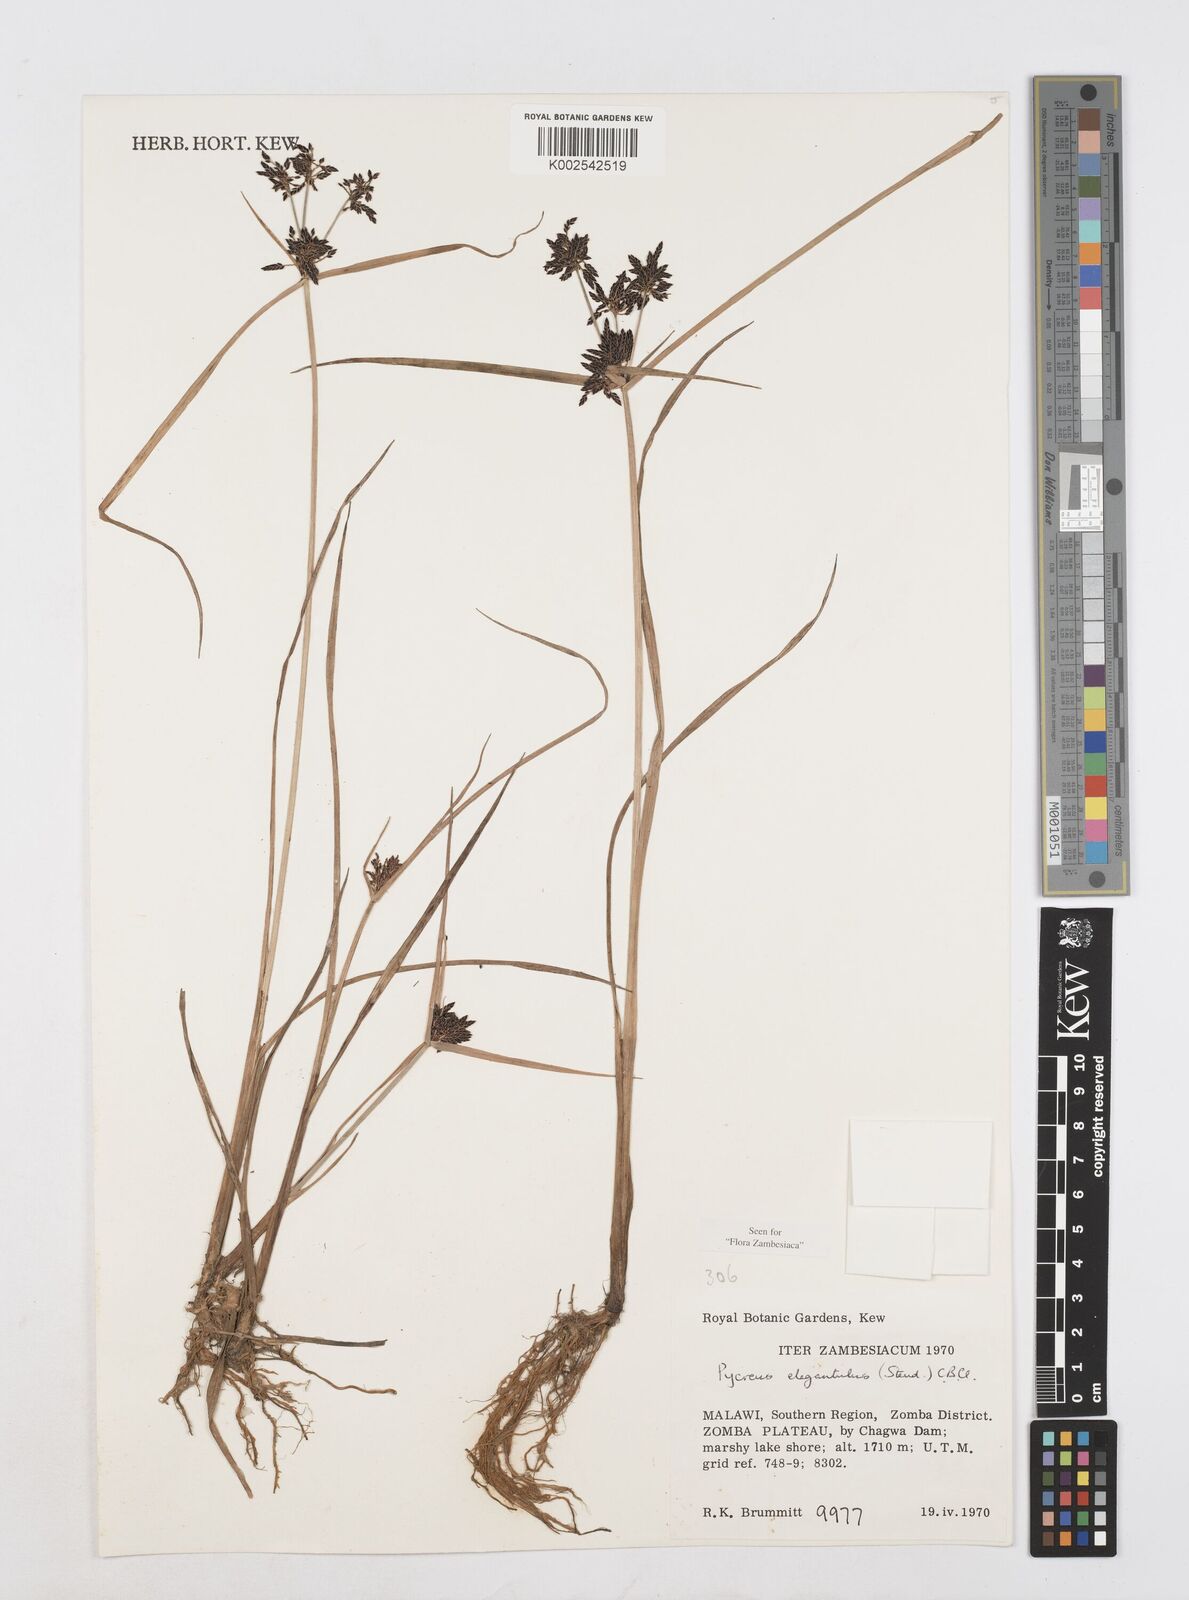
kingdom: Plantae
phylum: Tracheophyta
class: Liliopsida
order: Poales
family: Cyperaceae
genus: Cyperus
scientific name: Cyperus elegantulus
